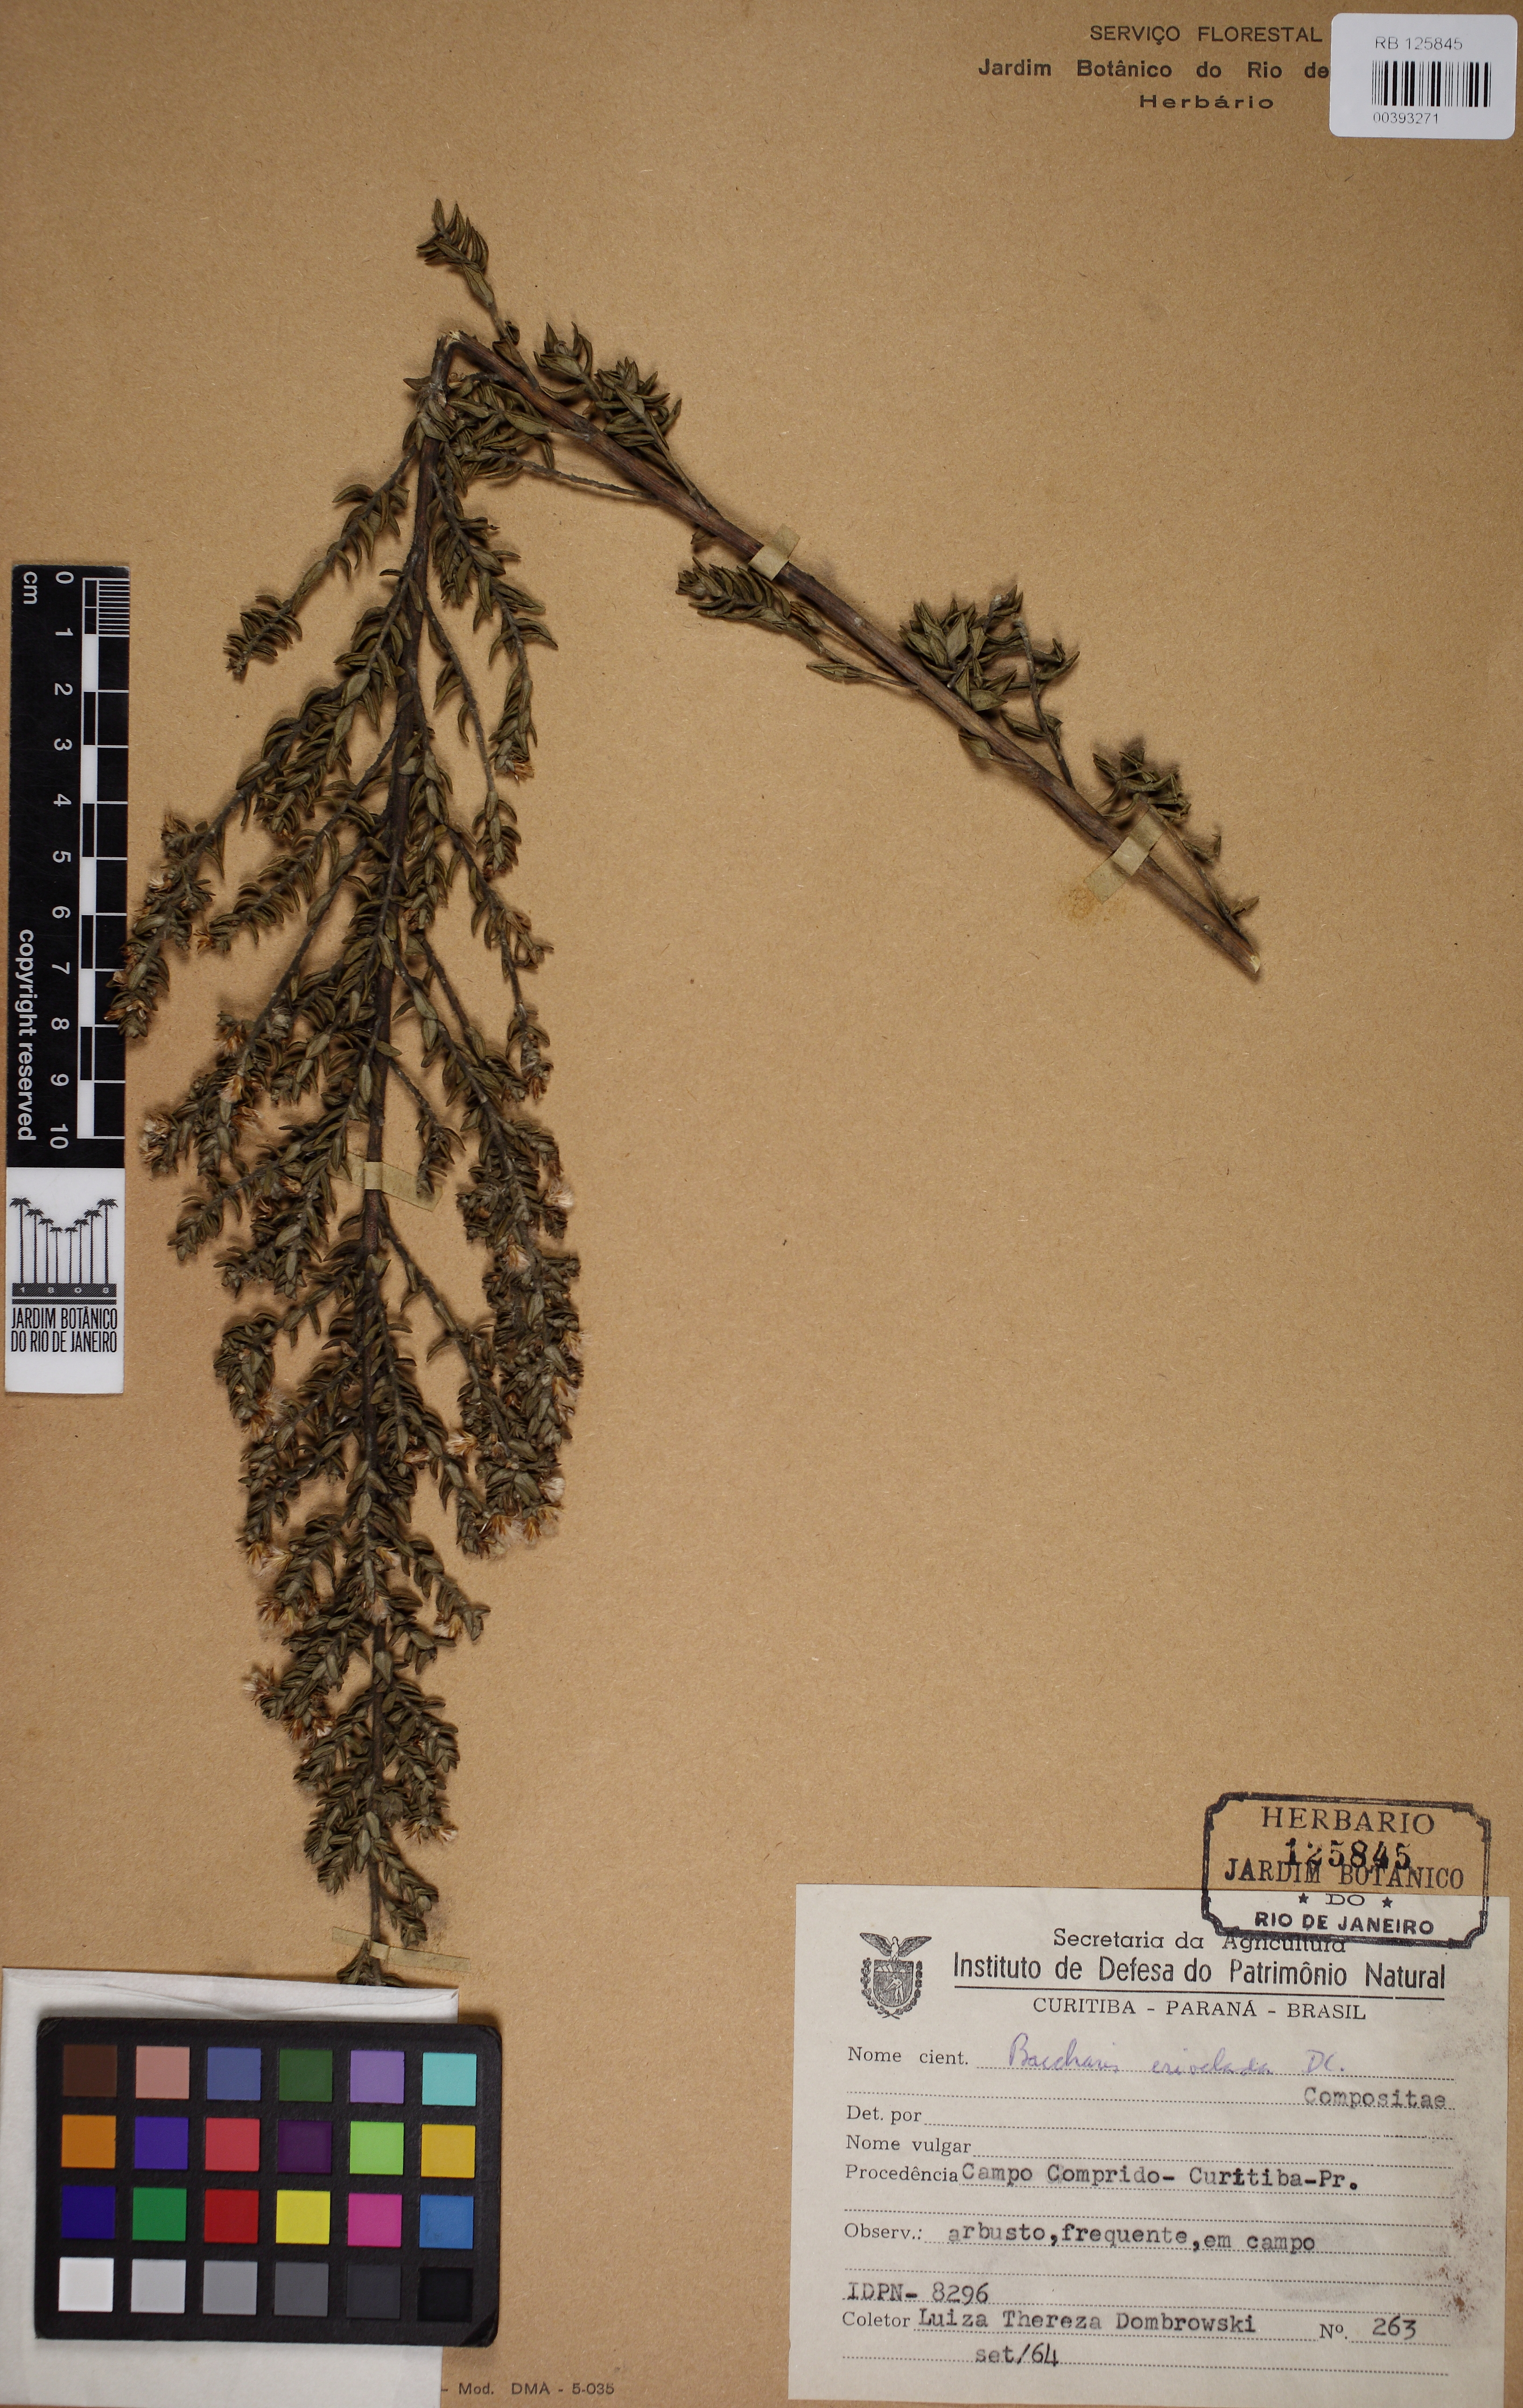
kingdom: Plantae
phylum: Tracheophyta
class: Magnoliopsida
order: Asterales
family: Asteraceae
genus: Baccharis
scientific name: Baccharis erioclada
